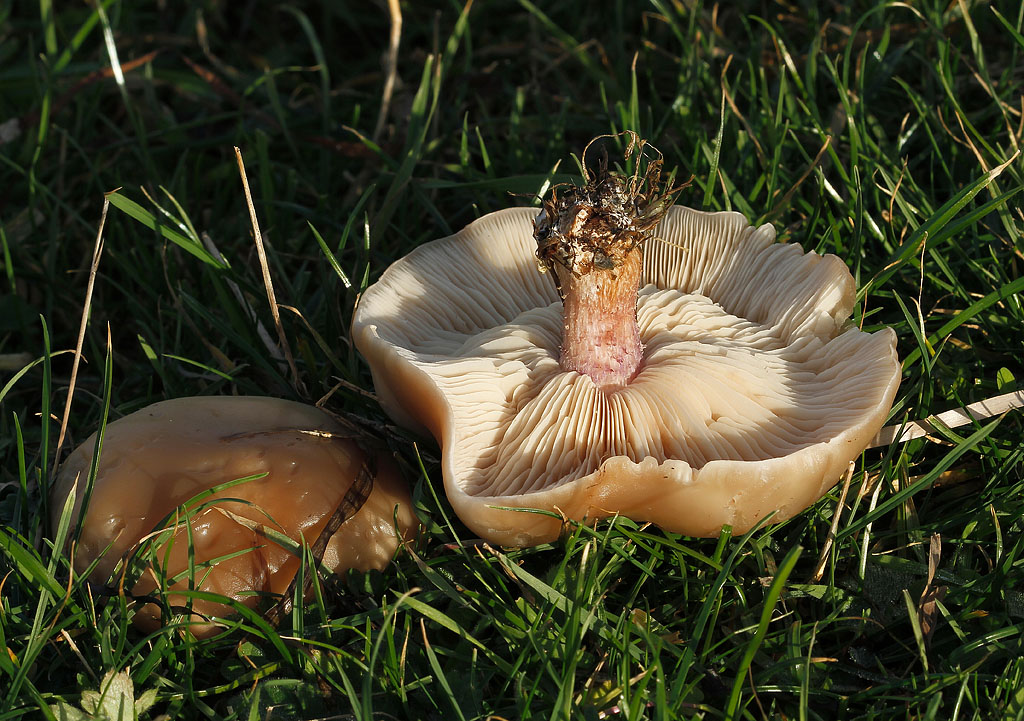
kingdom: Fungi
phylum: Basidiomycota
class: Agaricomycetes
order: Agaricales
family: Tricholomataceae
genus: Lepista
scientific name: Lepista personata
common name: bleg hekseringshat
